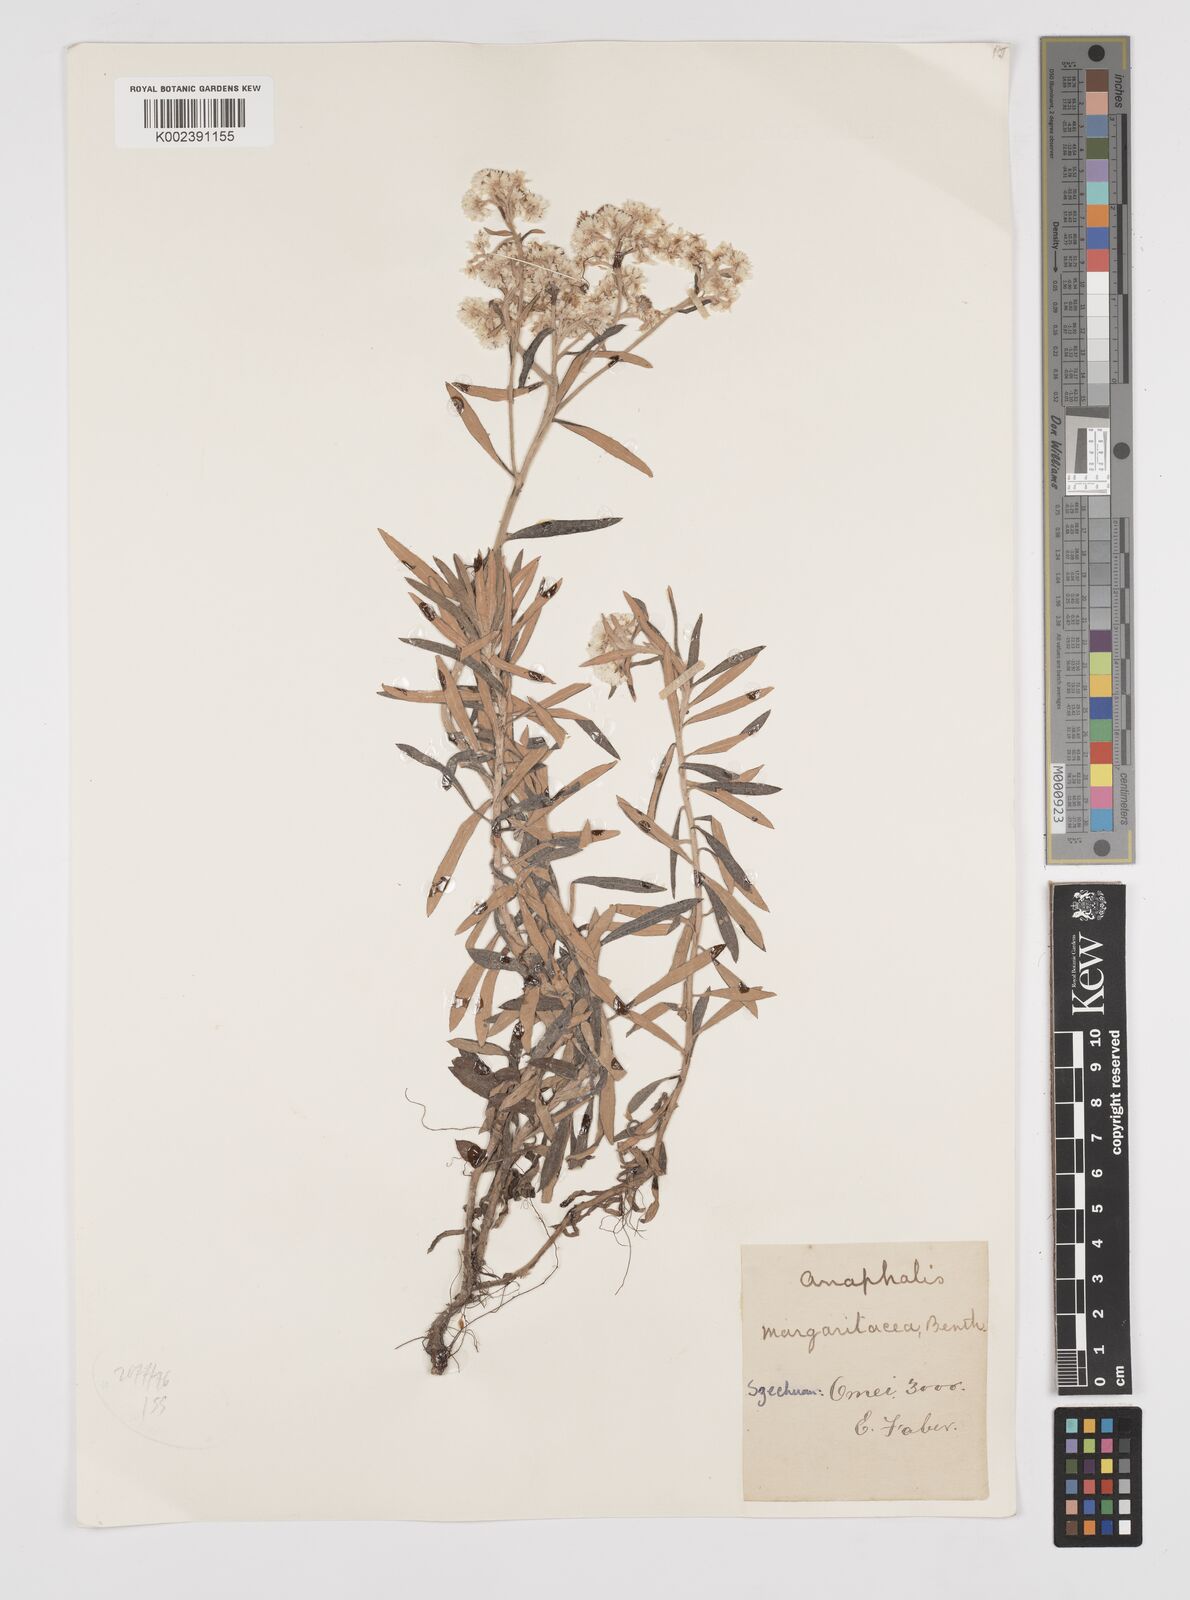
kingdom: Plantae
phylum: Tracheophyta
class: Magnoliopsida
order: Asterales
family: Asteraceae
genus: Anaphalis
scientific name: Anaphalis margaritacea
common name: Pearly everlasting
